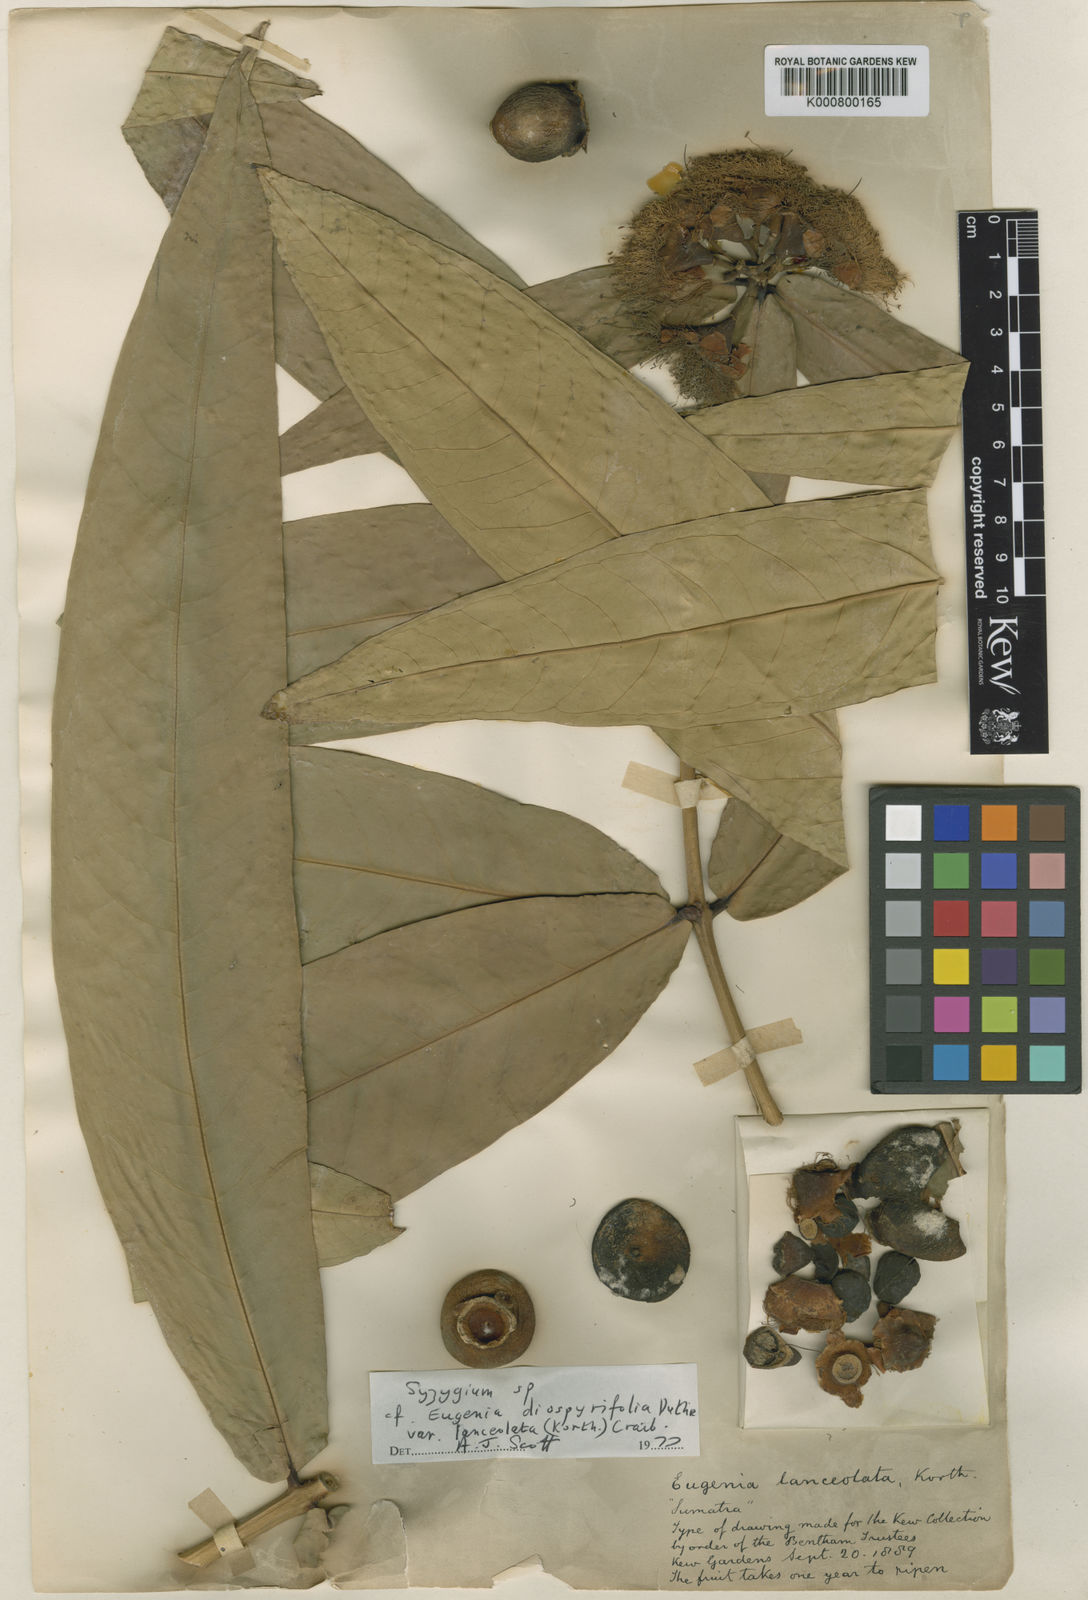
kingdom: Plantae
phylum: Tracheophyta
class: Magnoliopsida
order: Myrtales
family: Myrtaceae
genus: Syzygium
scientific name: Syzygium insigne
